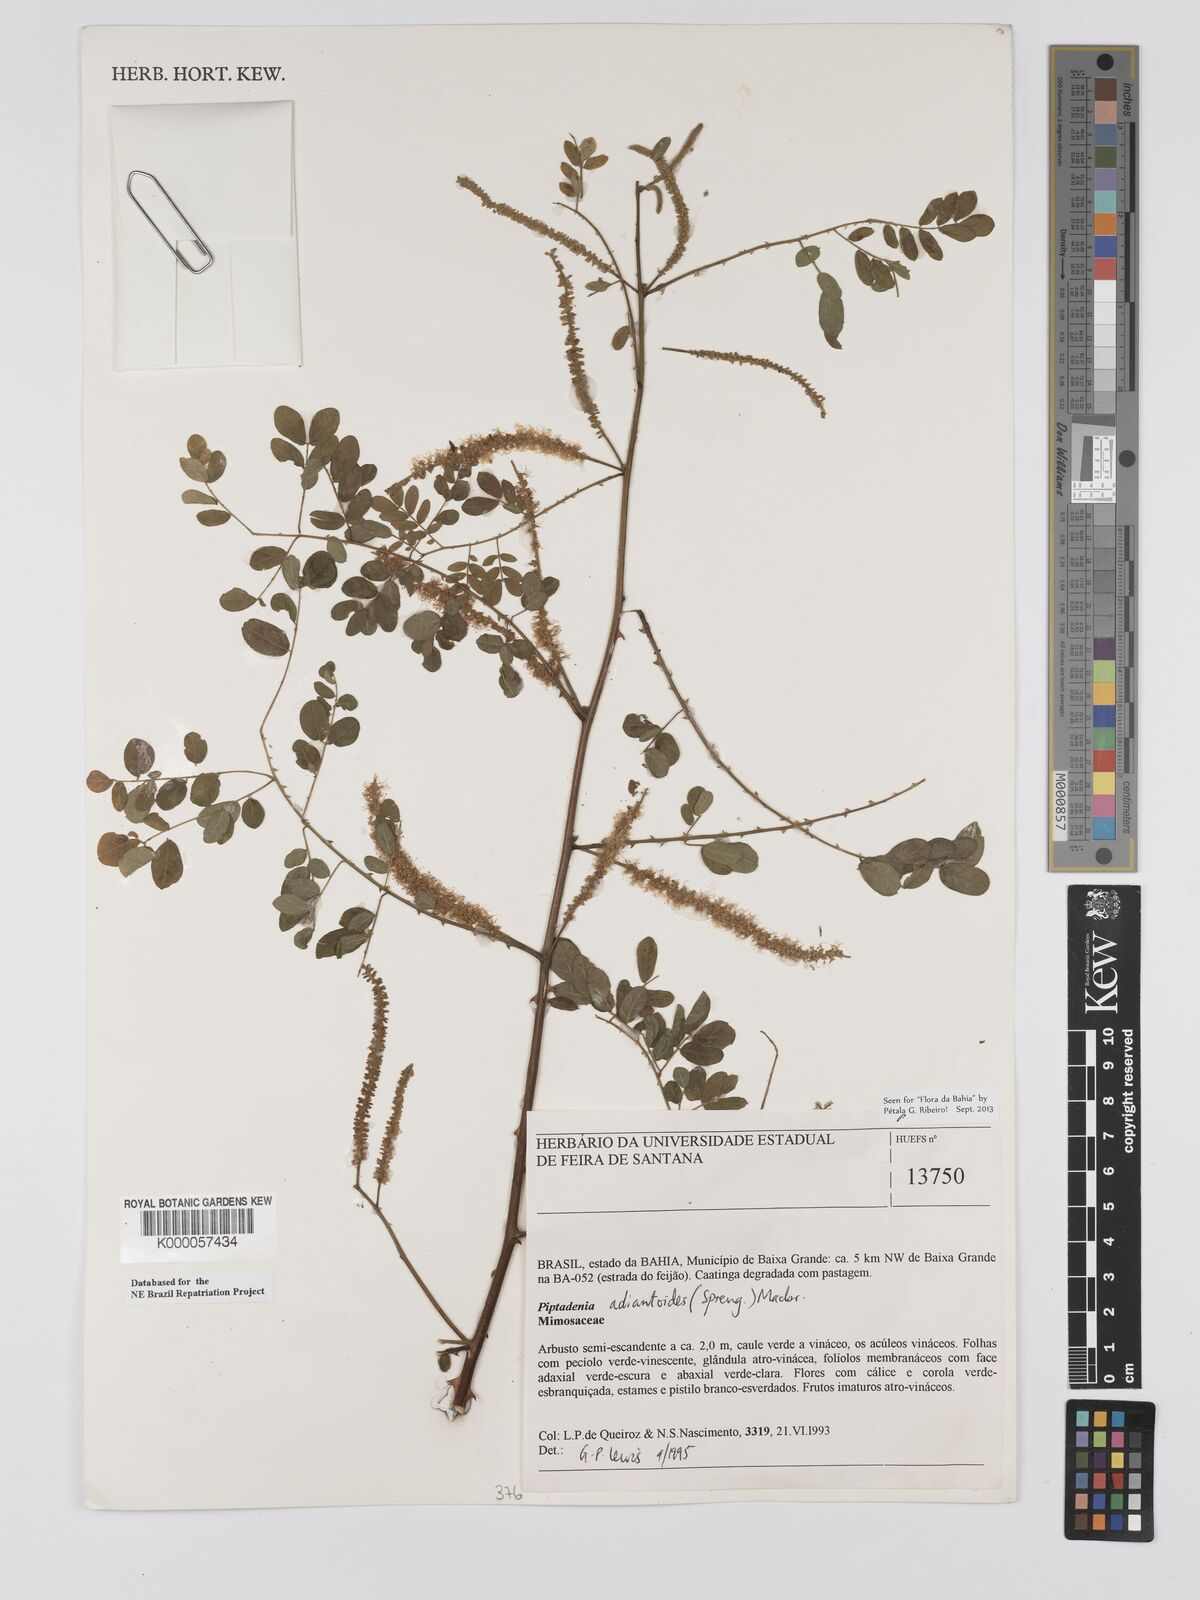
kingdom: Plantae
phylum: Tracheophyta
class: Magnoliopsida
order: Fabales
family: Fabaceae
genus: Piptadenia
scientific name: Piptadenia adiantoides
